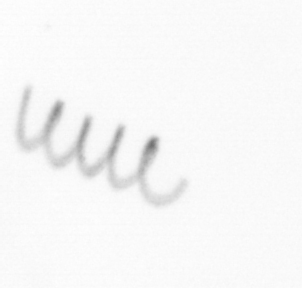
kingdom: Chromista
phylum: Ochrophyta
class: Bacillariophyceae
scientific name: Bacillariophyceae
